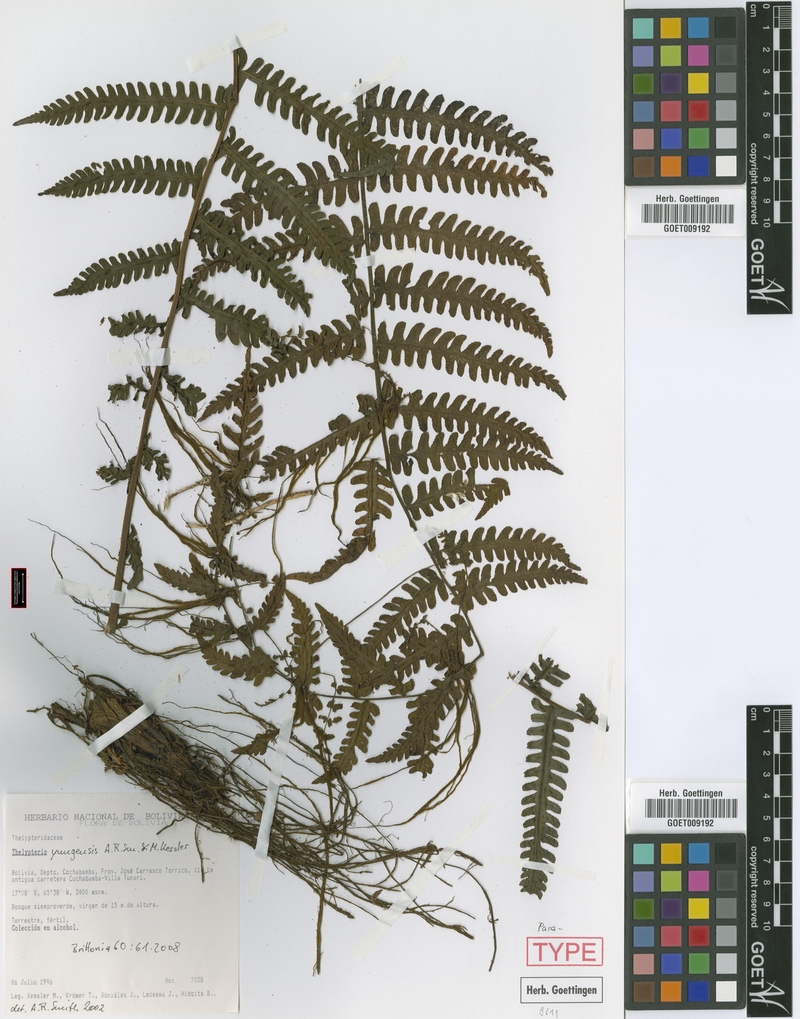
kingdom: Plantae
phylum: Tracheophyta
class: Polypodiopsida
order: Polypodiales
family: Thelypteridaceae
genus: Amauropelta
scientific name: Amauropelta yungensis
